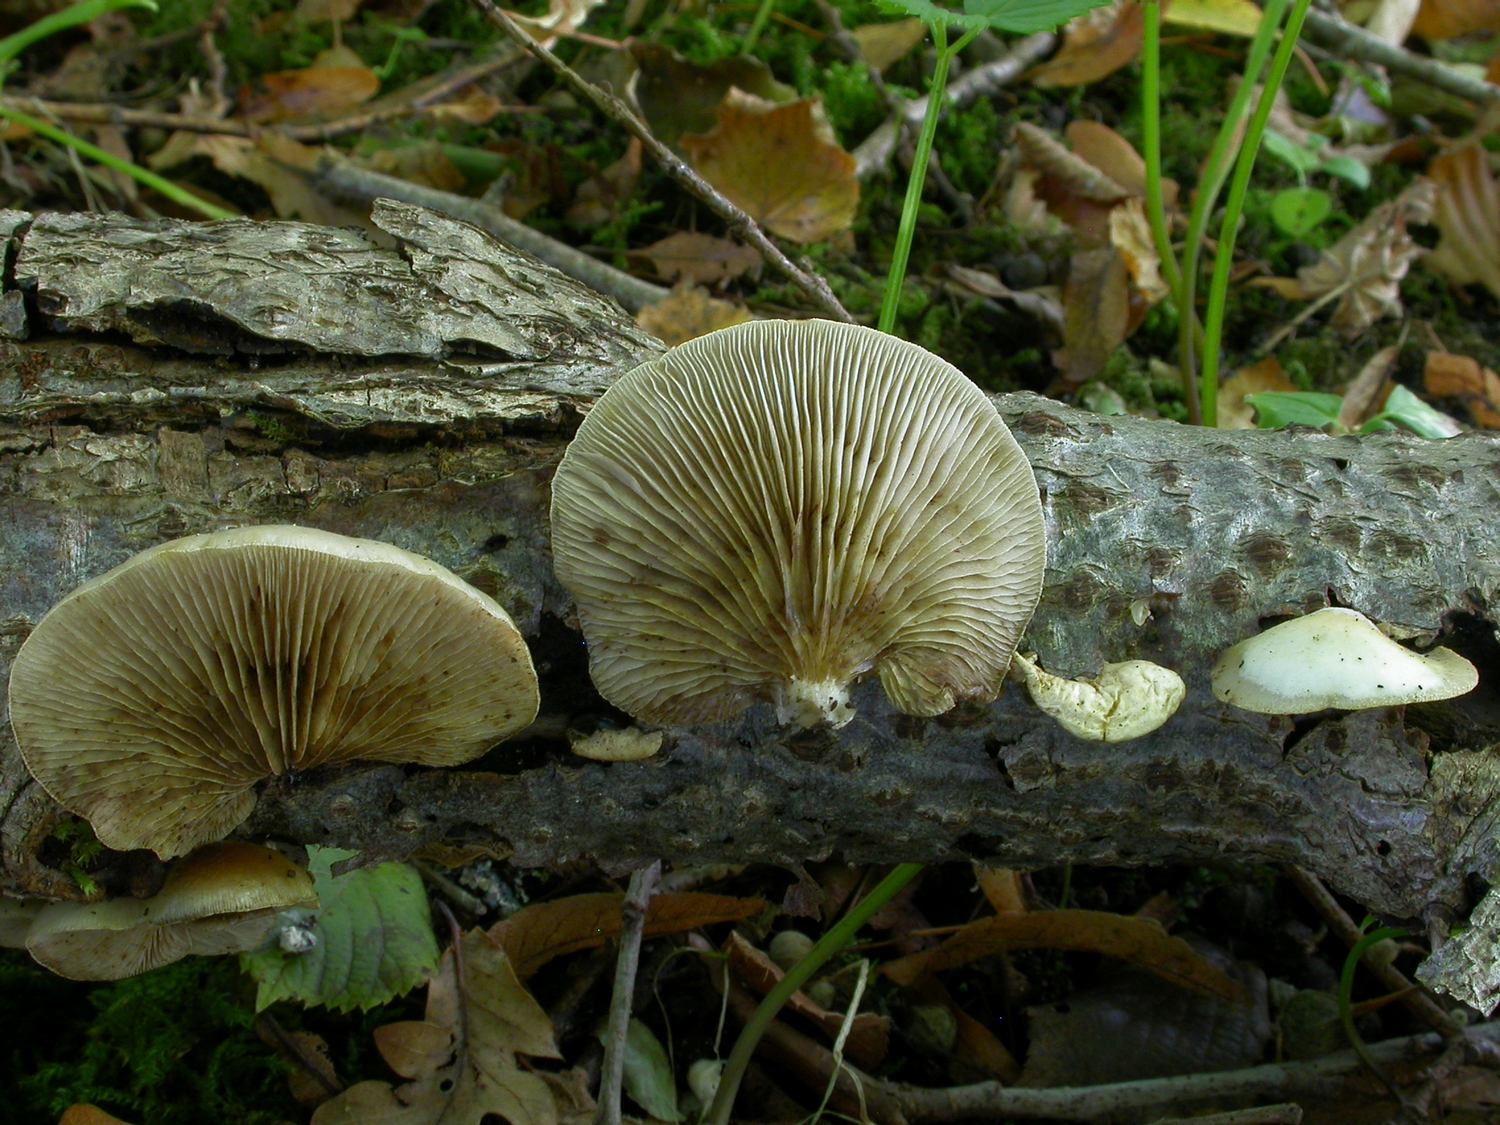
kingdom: Fungi
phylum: Basidiomycota
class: Agaricomycetes
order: Agaricales
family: Crepidotaceae
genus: Crepidotus
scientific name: Crepidotus mollis
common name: blød muslingesvamp
